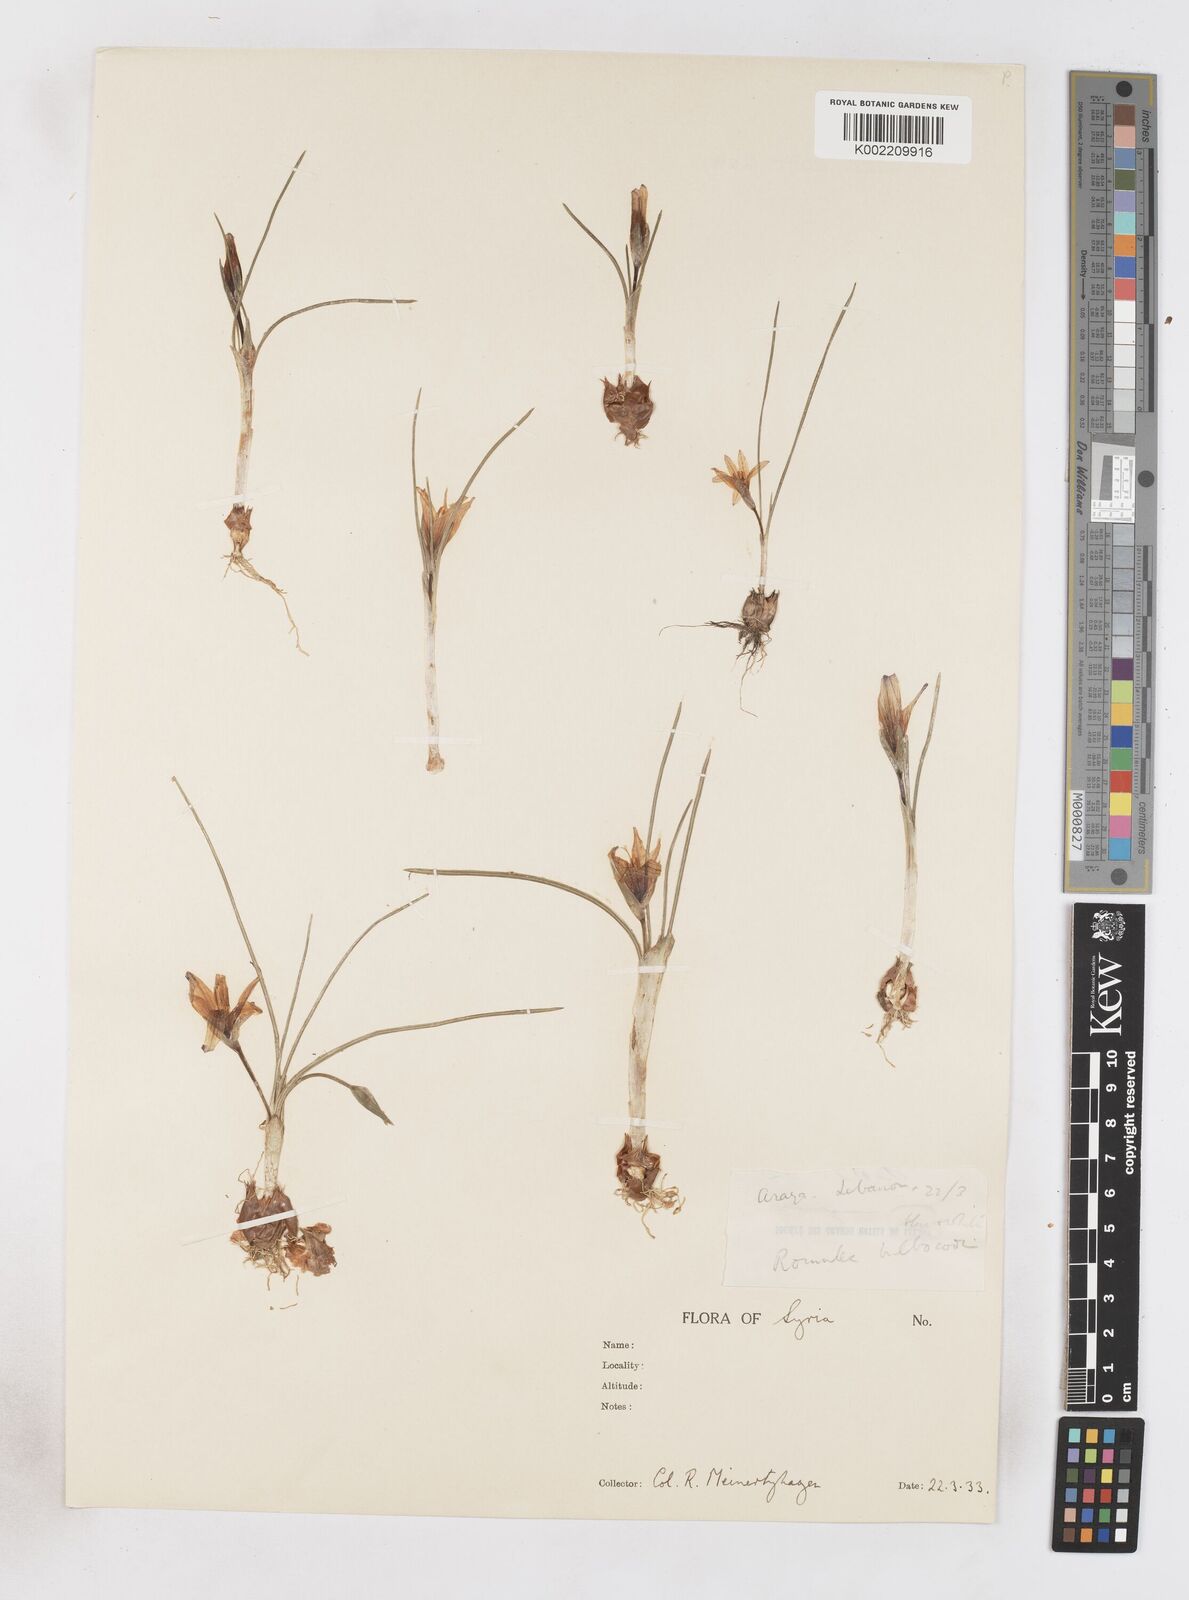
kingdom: Plantae
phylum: Tracheophyta
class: Liliopsida
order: Asparagales
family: Iridaceae
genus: Romulea
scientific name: Romulea bulbocodium
